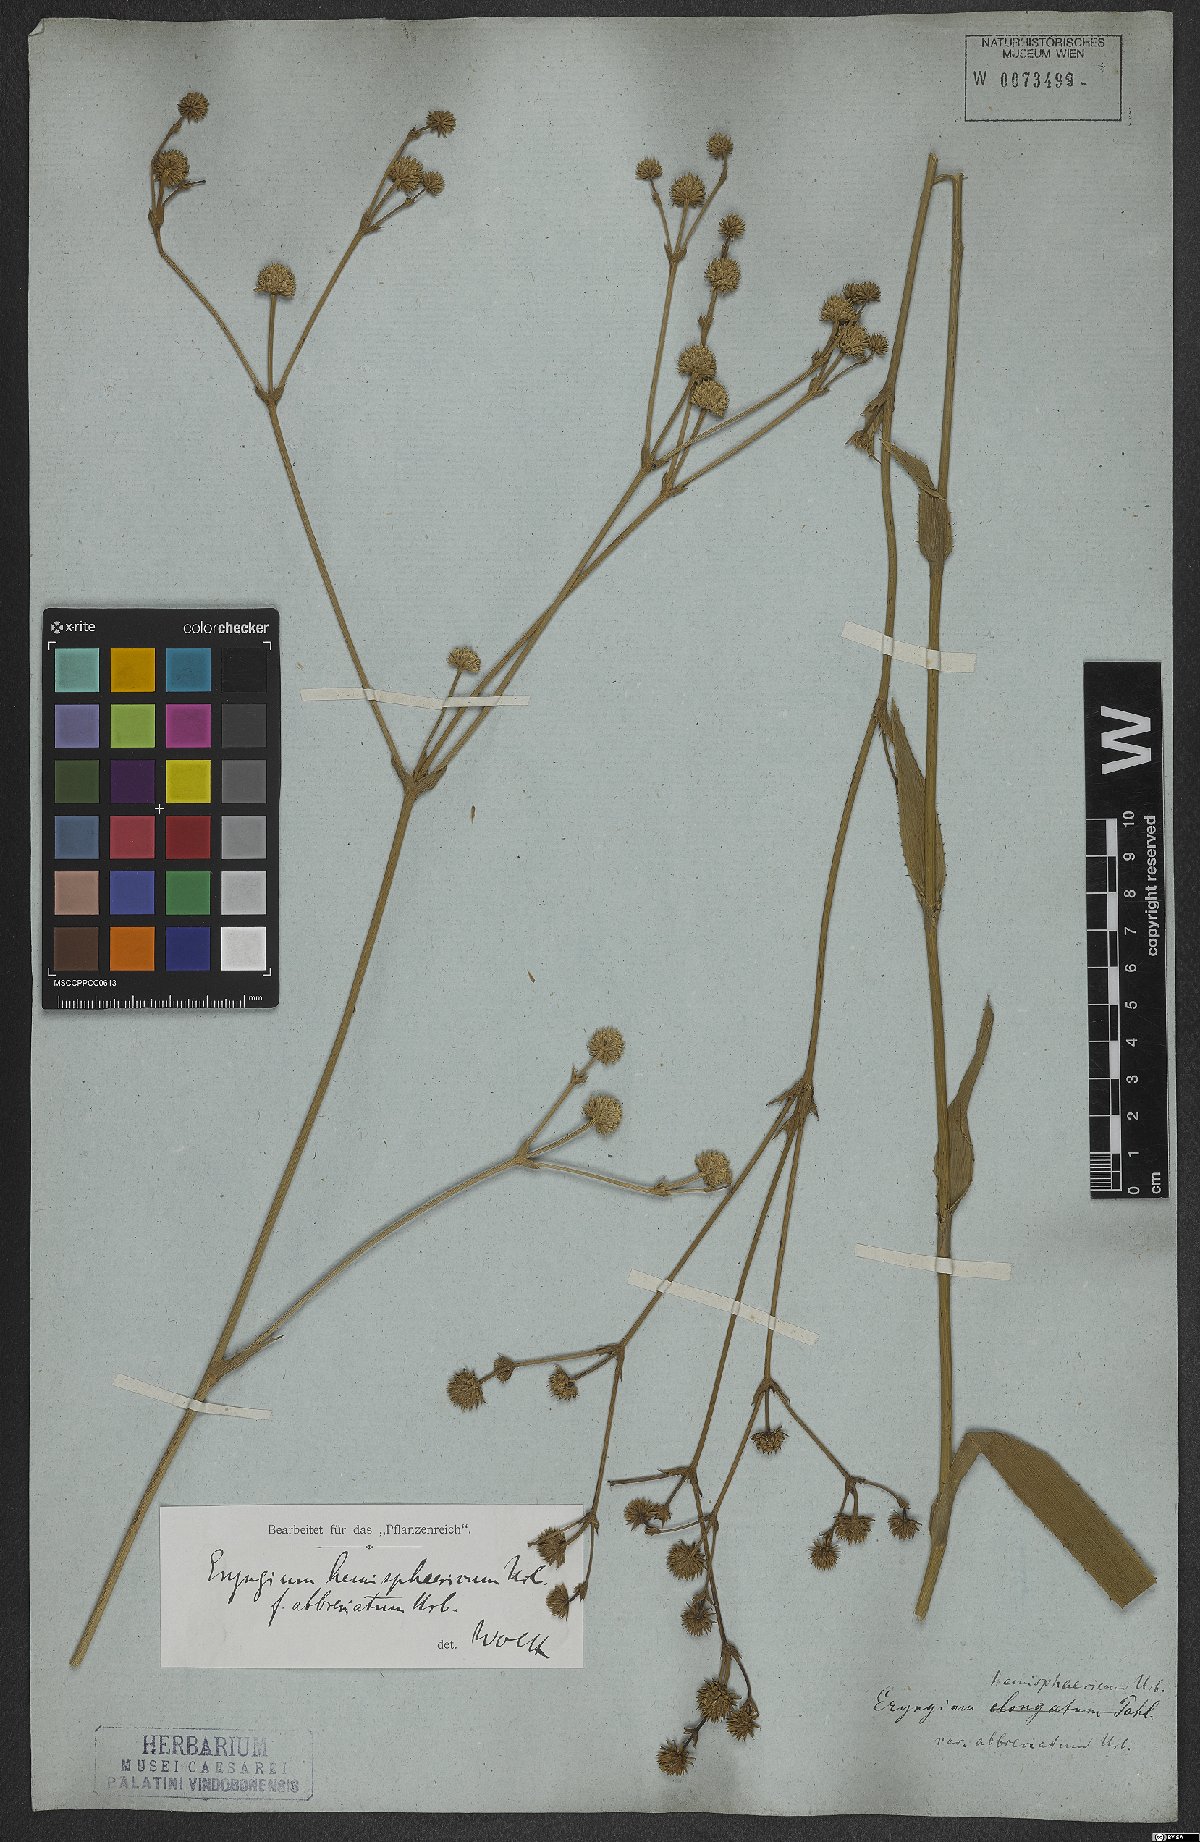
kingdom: Plantae
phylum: Tracheophyta
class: Magnoliopsida
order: Apiales
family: Apiaceae
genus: Eryngium
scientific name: Eryngium hemisphaericum
